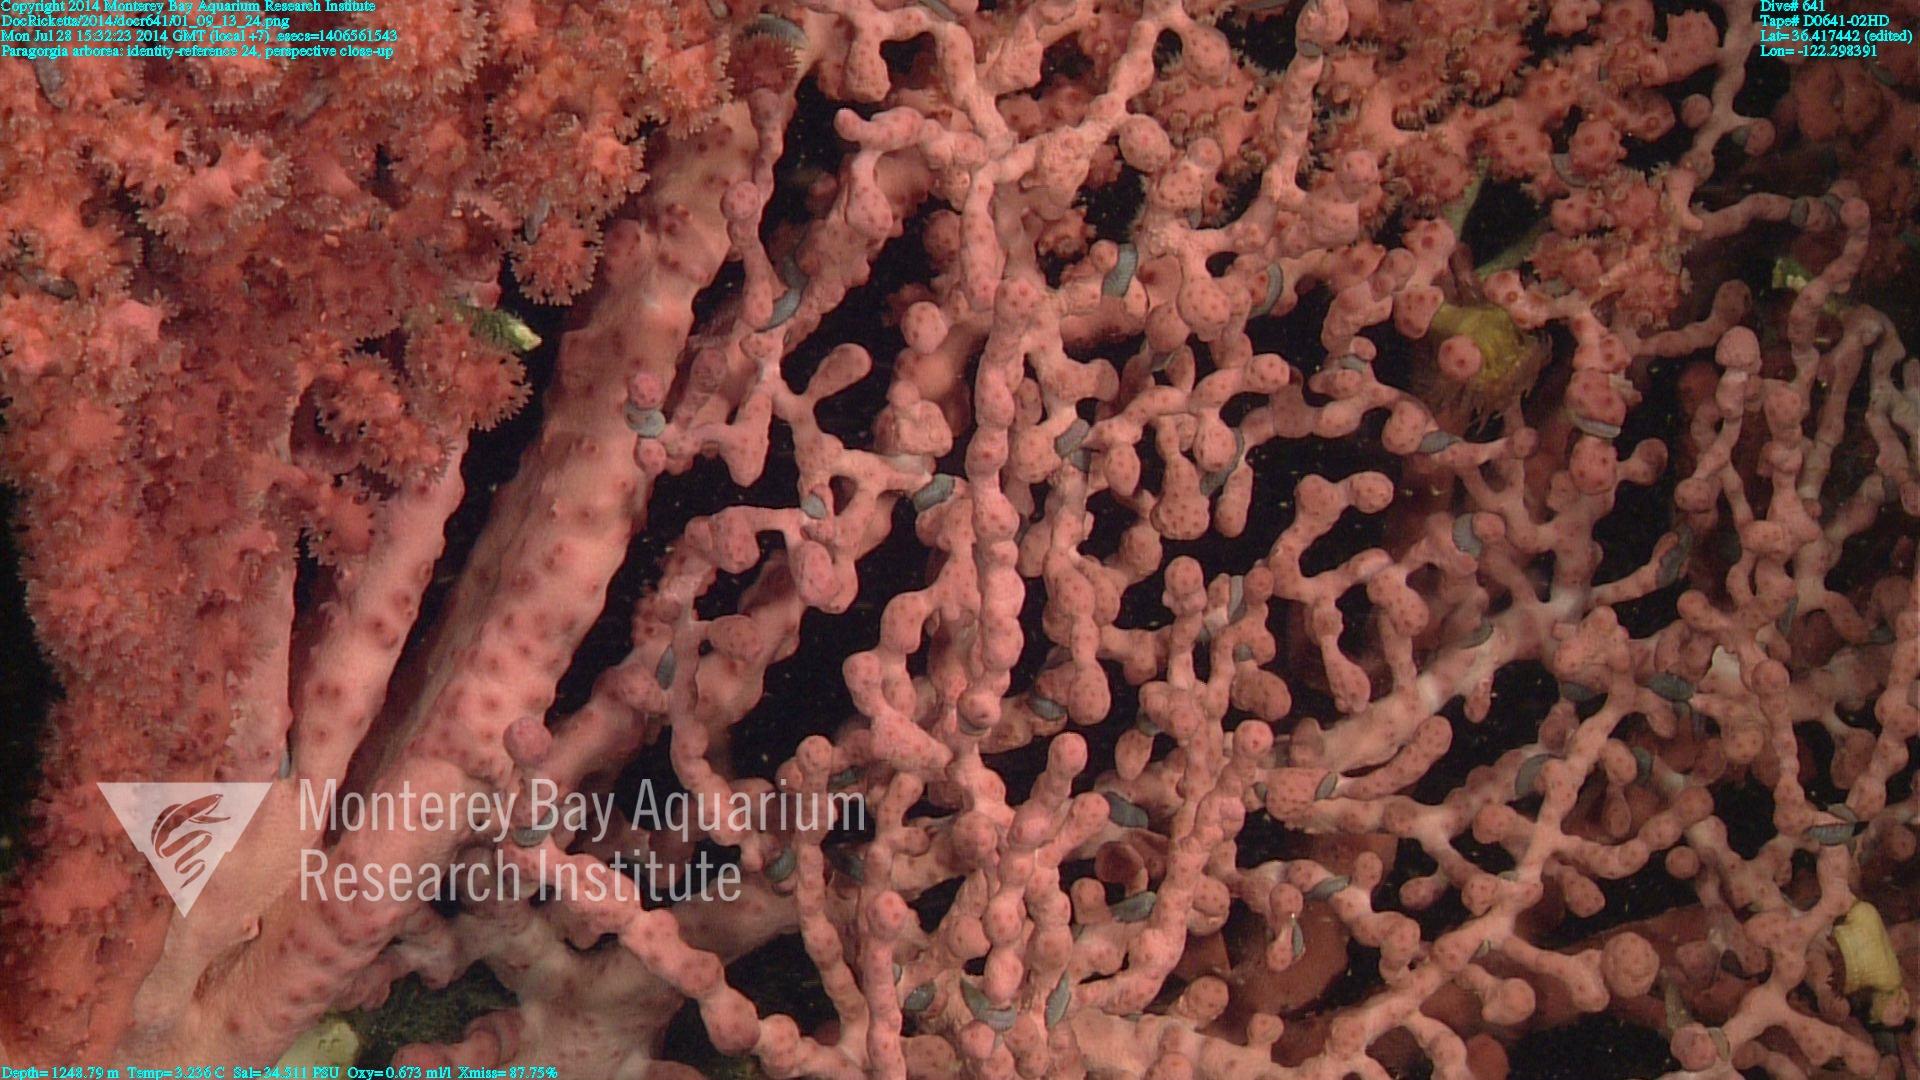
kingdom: Animalia
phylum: Cnidaria
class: Anthozoa
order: Scleralcyonacea
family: Coralliidae
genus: Paragorgia
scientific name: Paragorgia arborea
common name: Bubble gum coral
